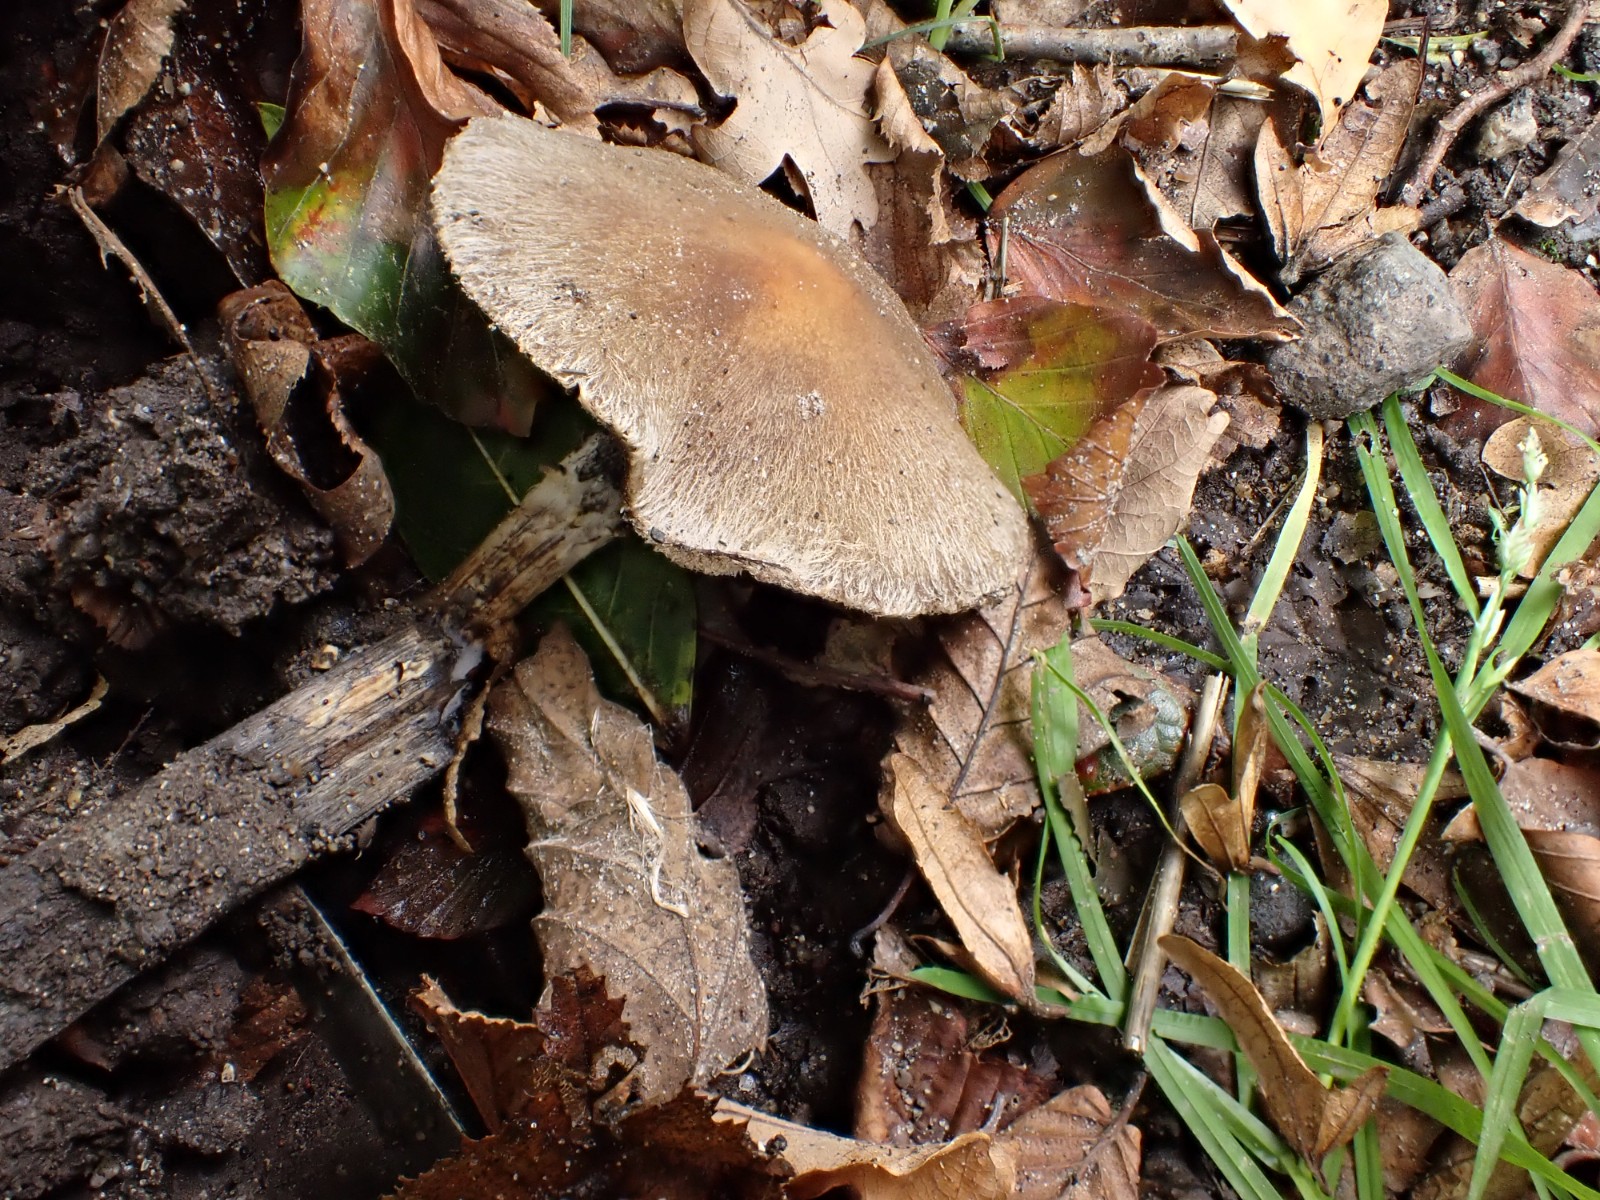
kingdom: Fungi
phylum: Basidiomycota
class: Agaricomycetes
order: Agaricales
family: Psathyrellaceae
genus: Lacrymaria
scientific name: Lacrymaria lacrymabunda
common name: grædende mørkhat
